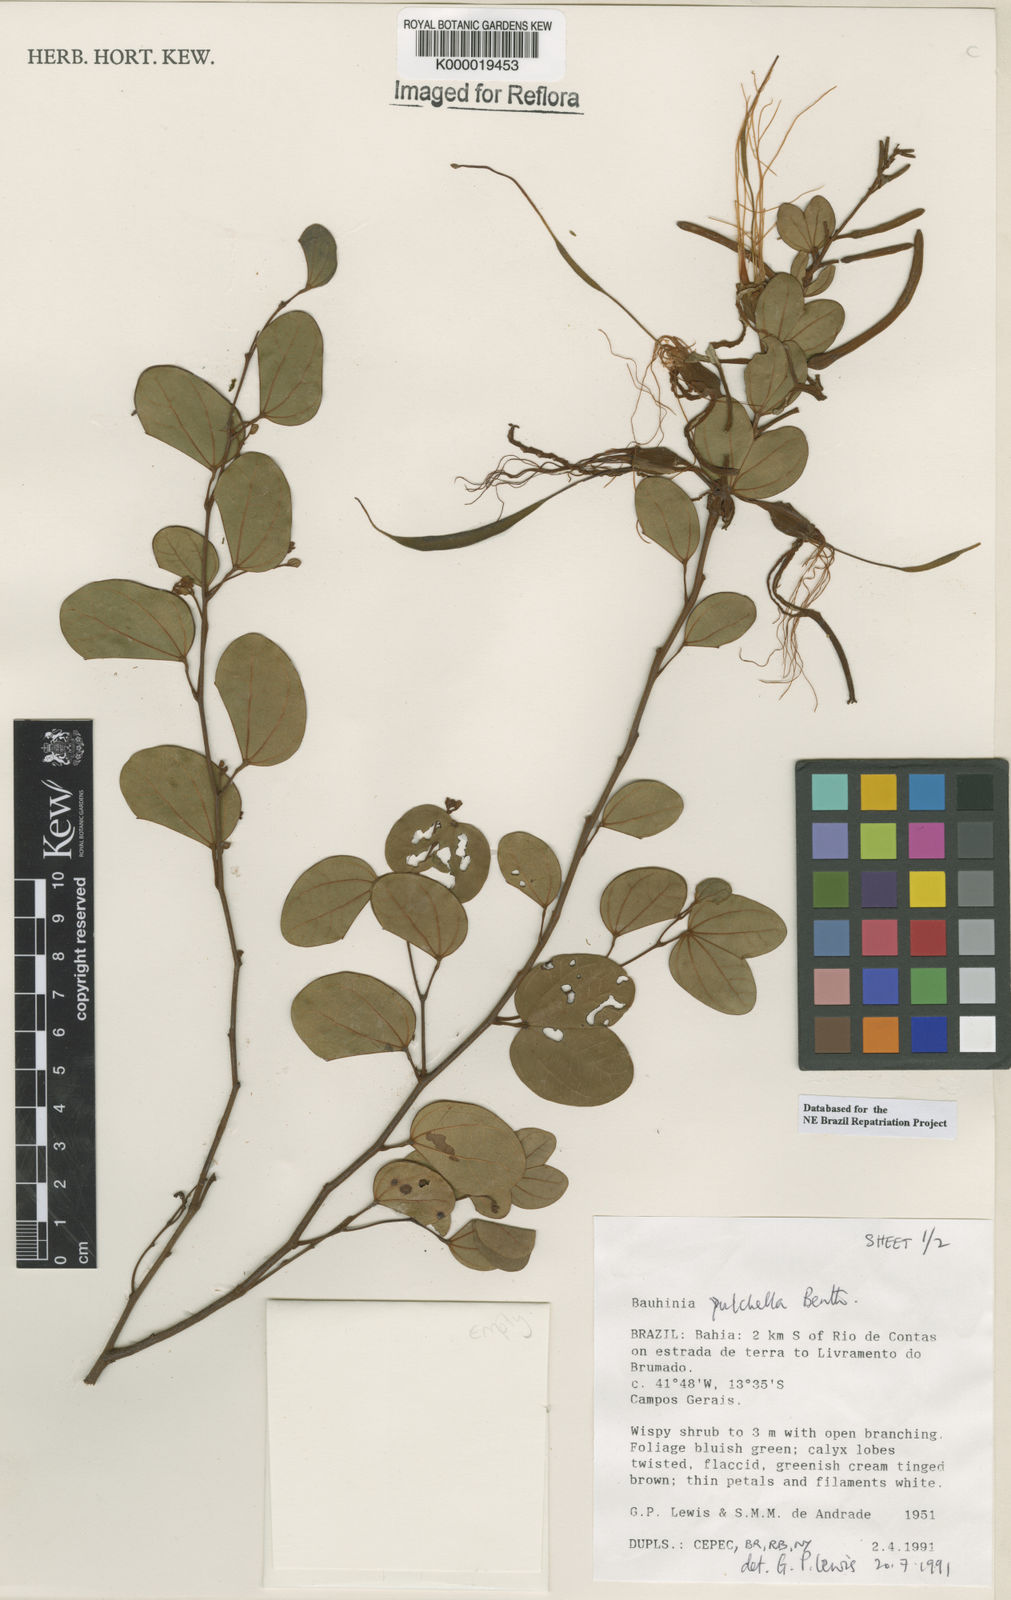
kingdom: Plantae
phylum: Tracheophyta
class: Magnoliopsida
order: Fabales
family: Fabaceae
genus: Bauhinia
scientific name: Bauhinia pulchella
